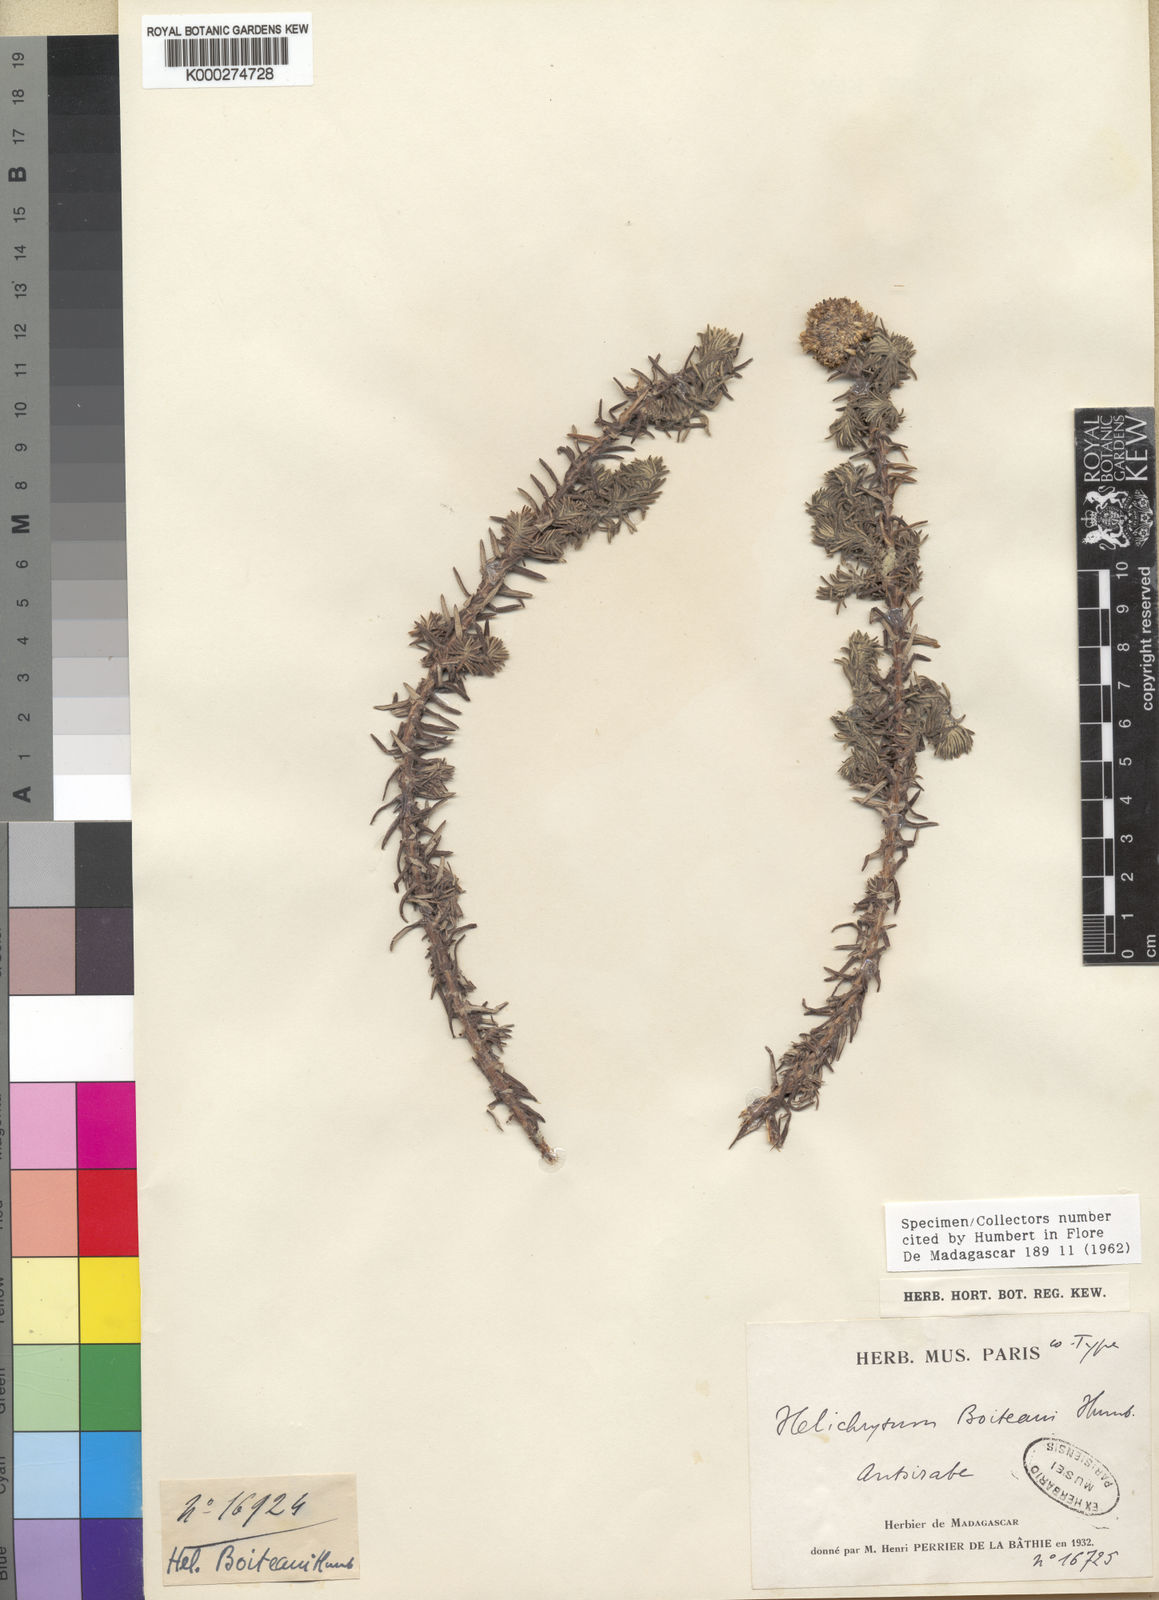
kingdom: Plantae
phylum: Tracheophyta
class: Magnoliopsida
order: Asterales
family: Asteraceae
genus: Helichrysum
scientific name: Helichrysum boiteaui
